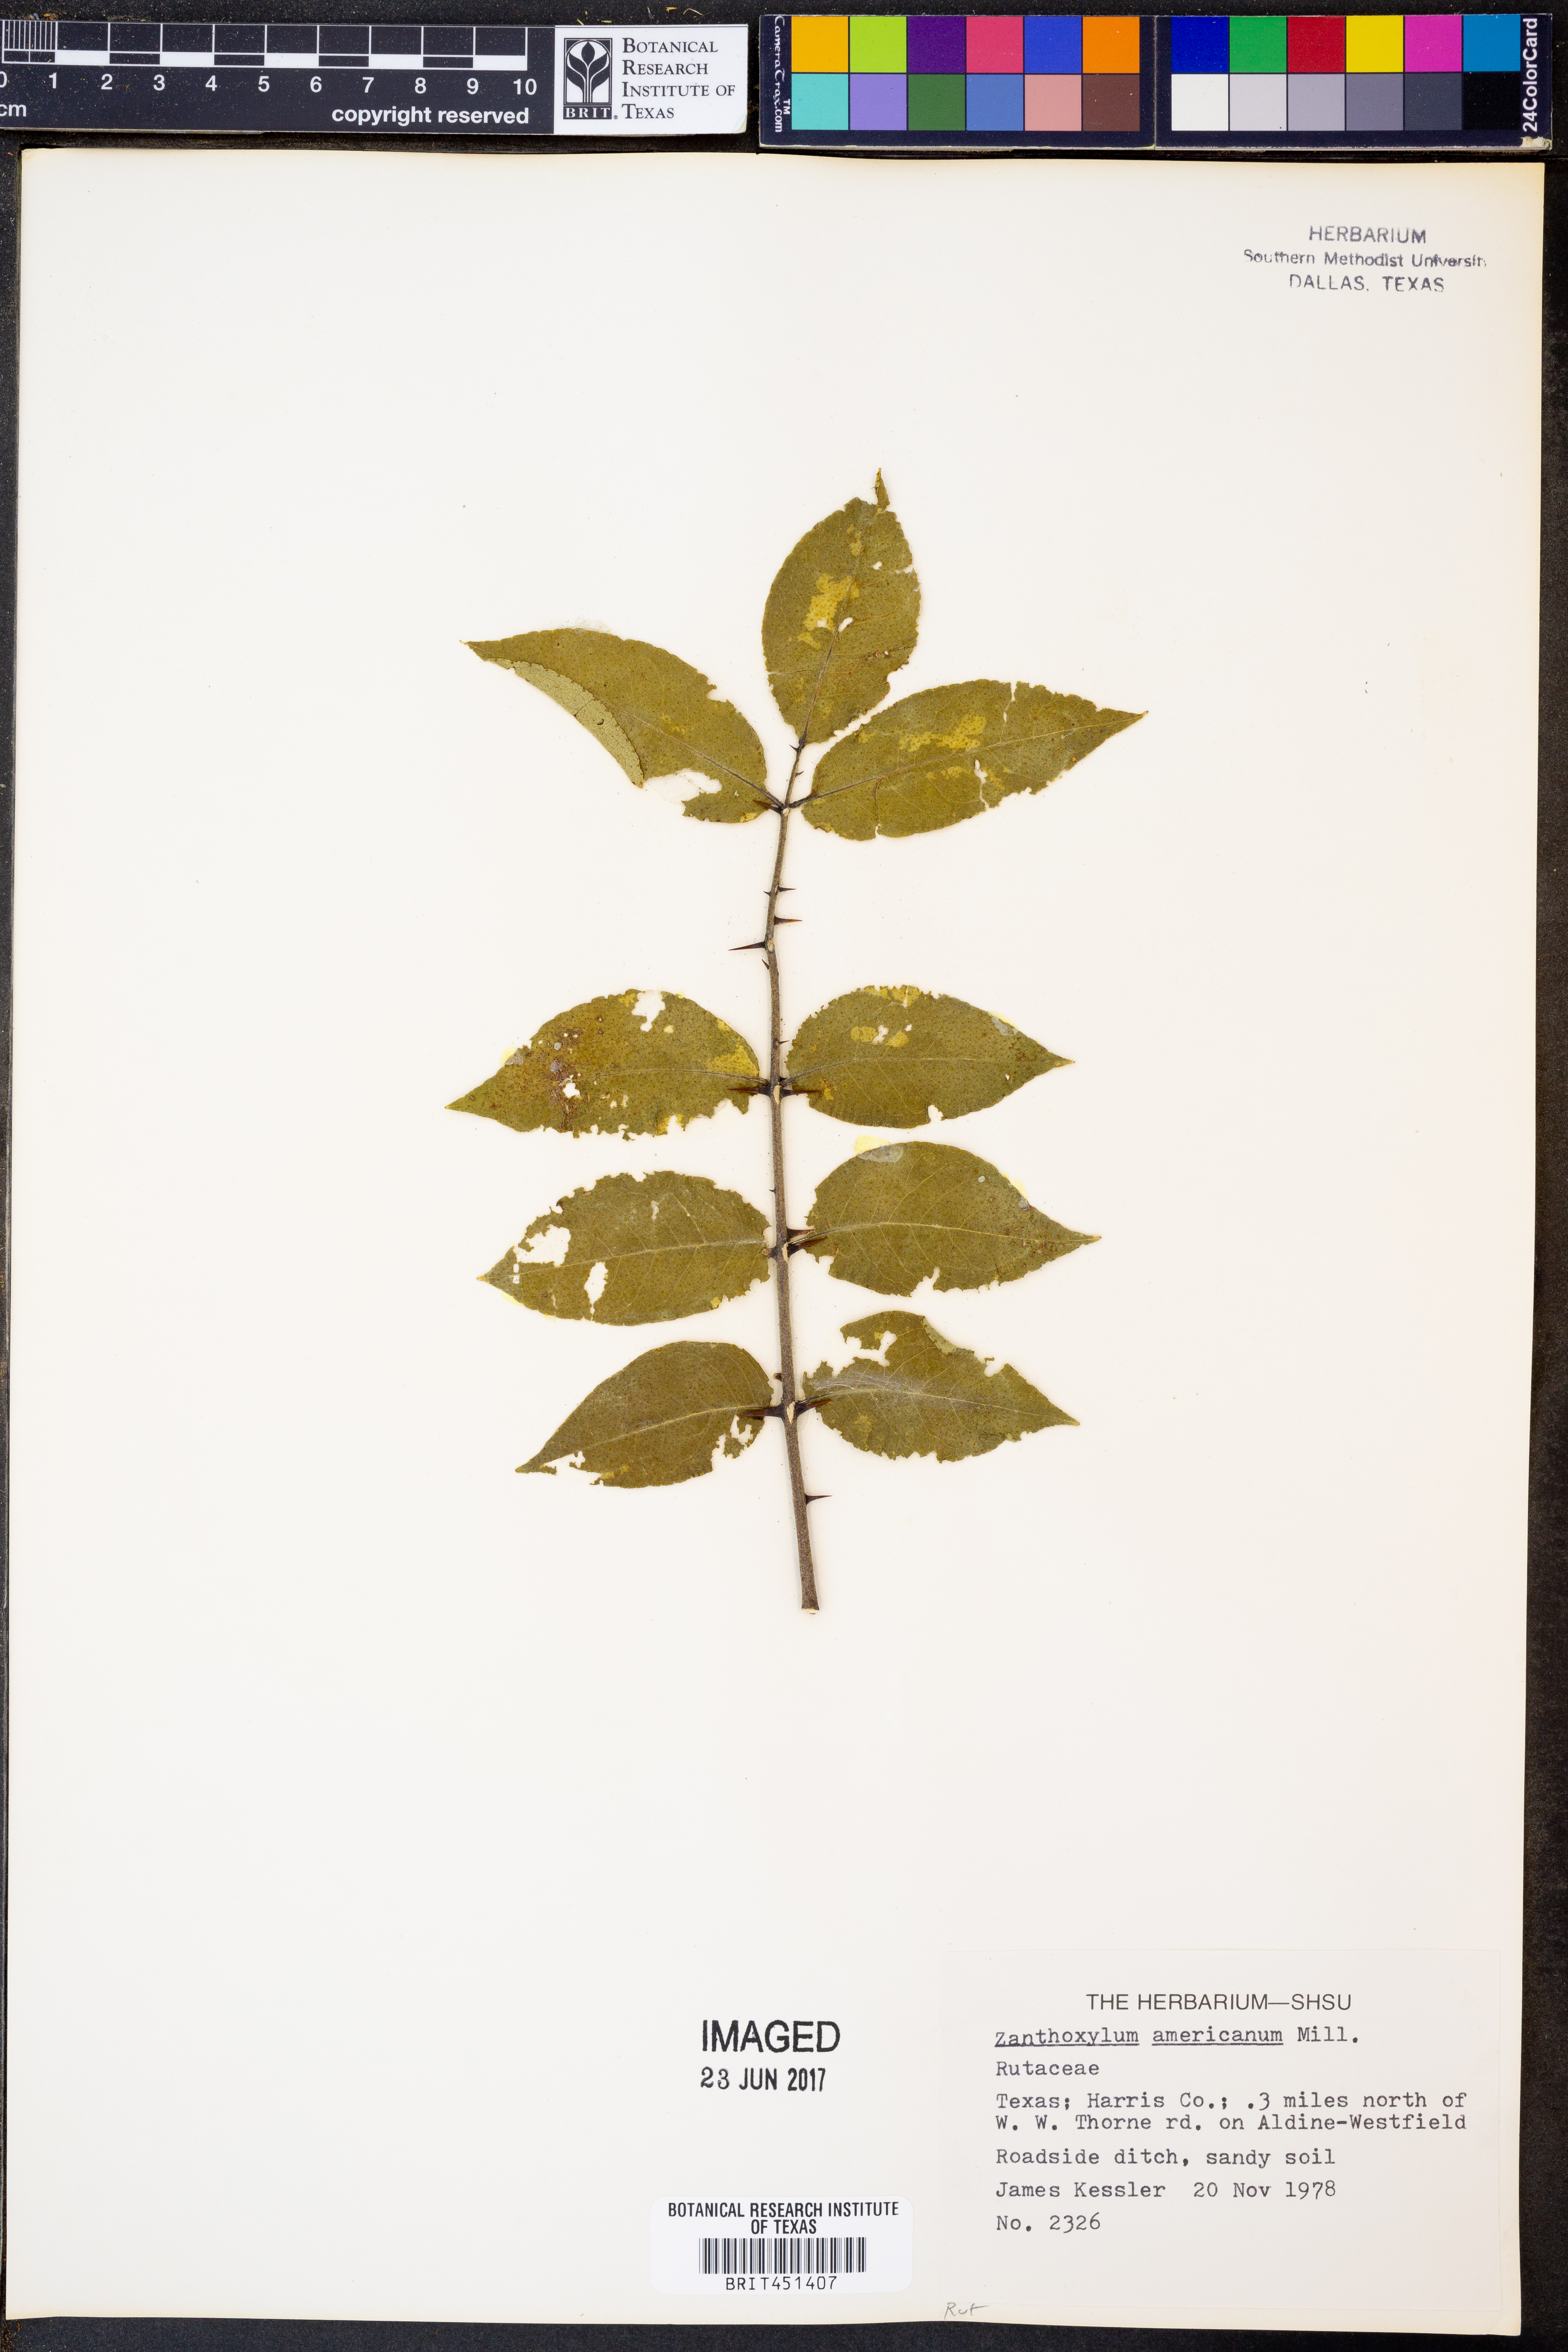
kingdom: Plantae
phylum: Tracheophyta
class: Magnoliopsida
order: Sapindales
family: Rutaceae
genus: Zanthoxylum
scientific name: Zanthoxylum americanum
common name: Northern prickly-ash
